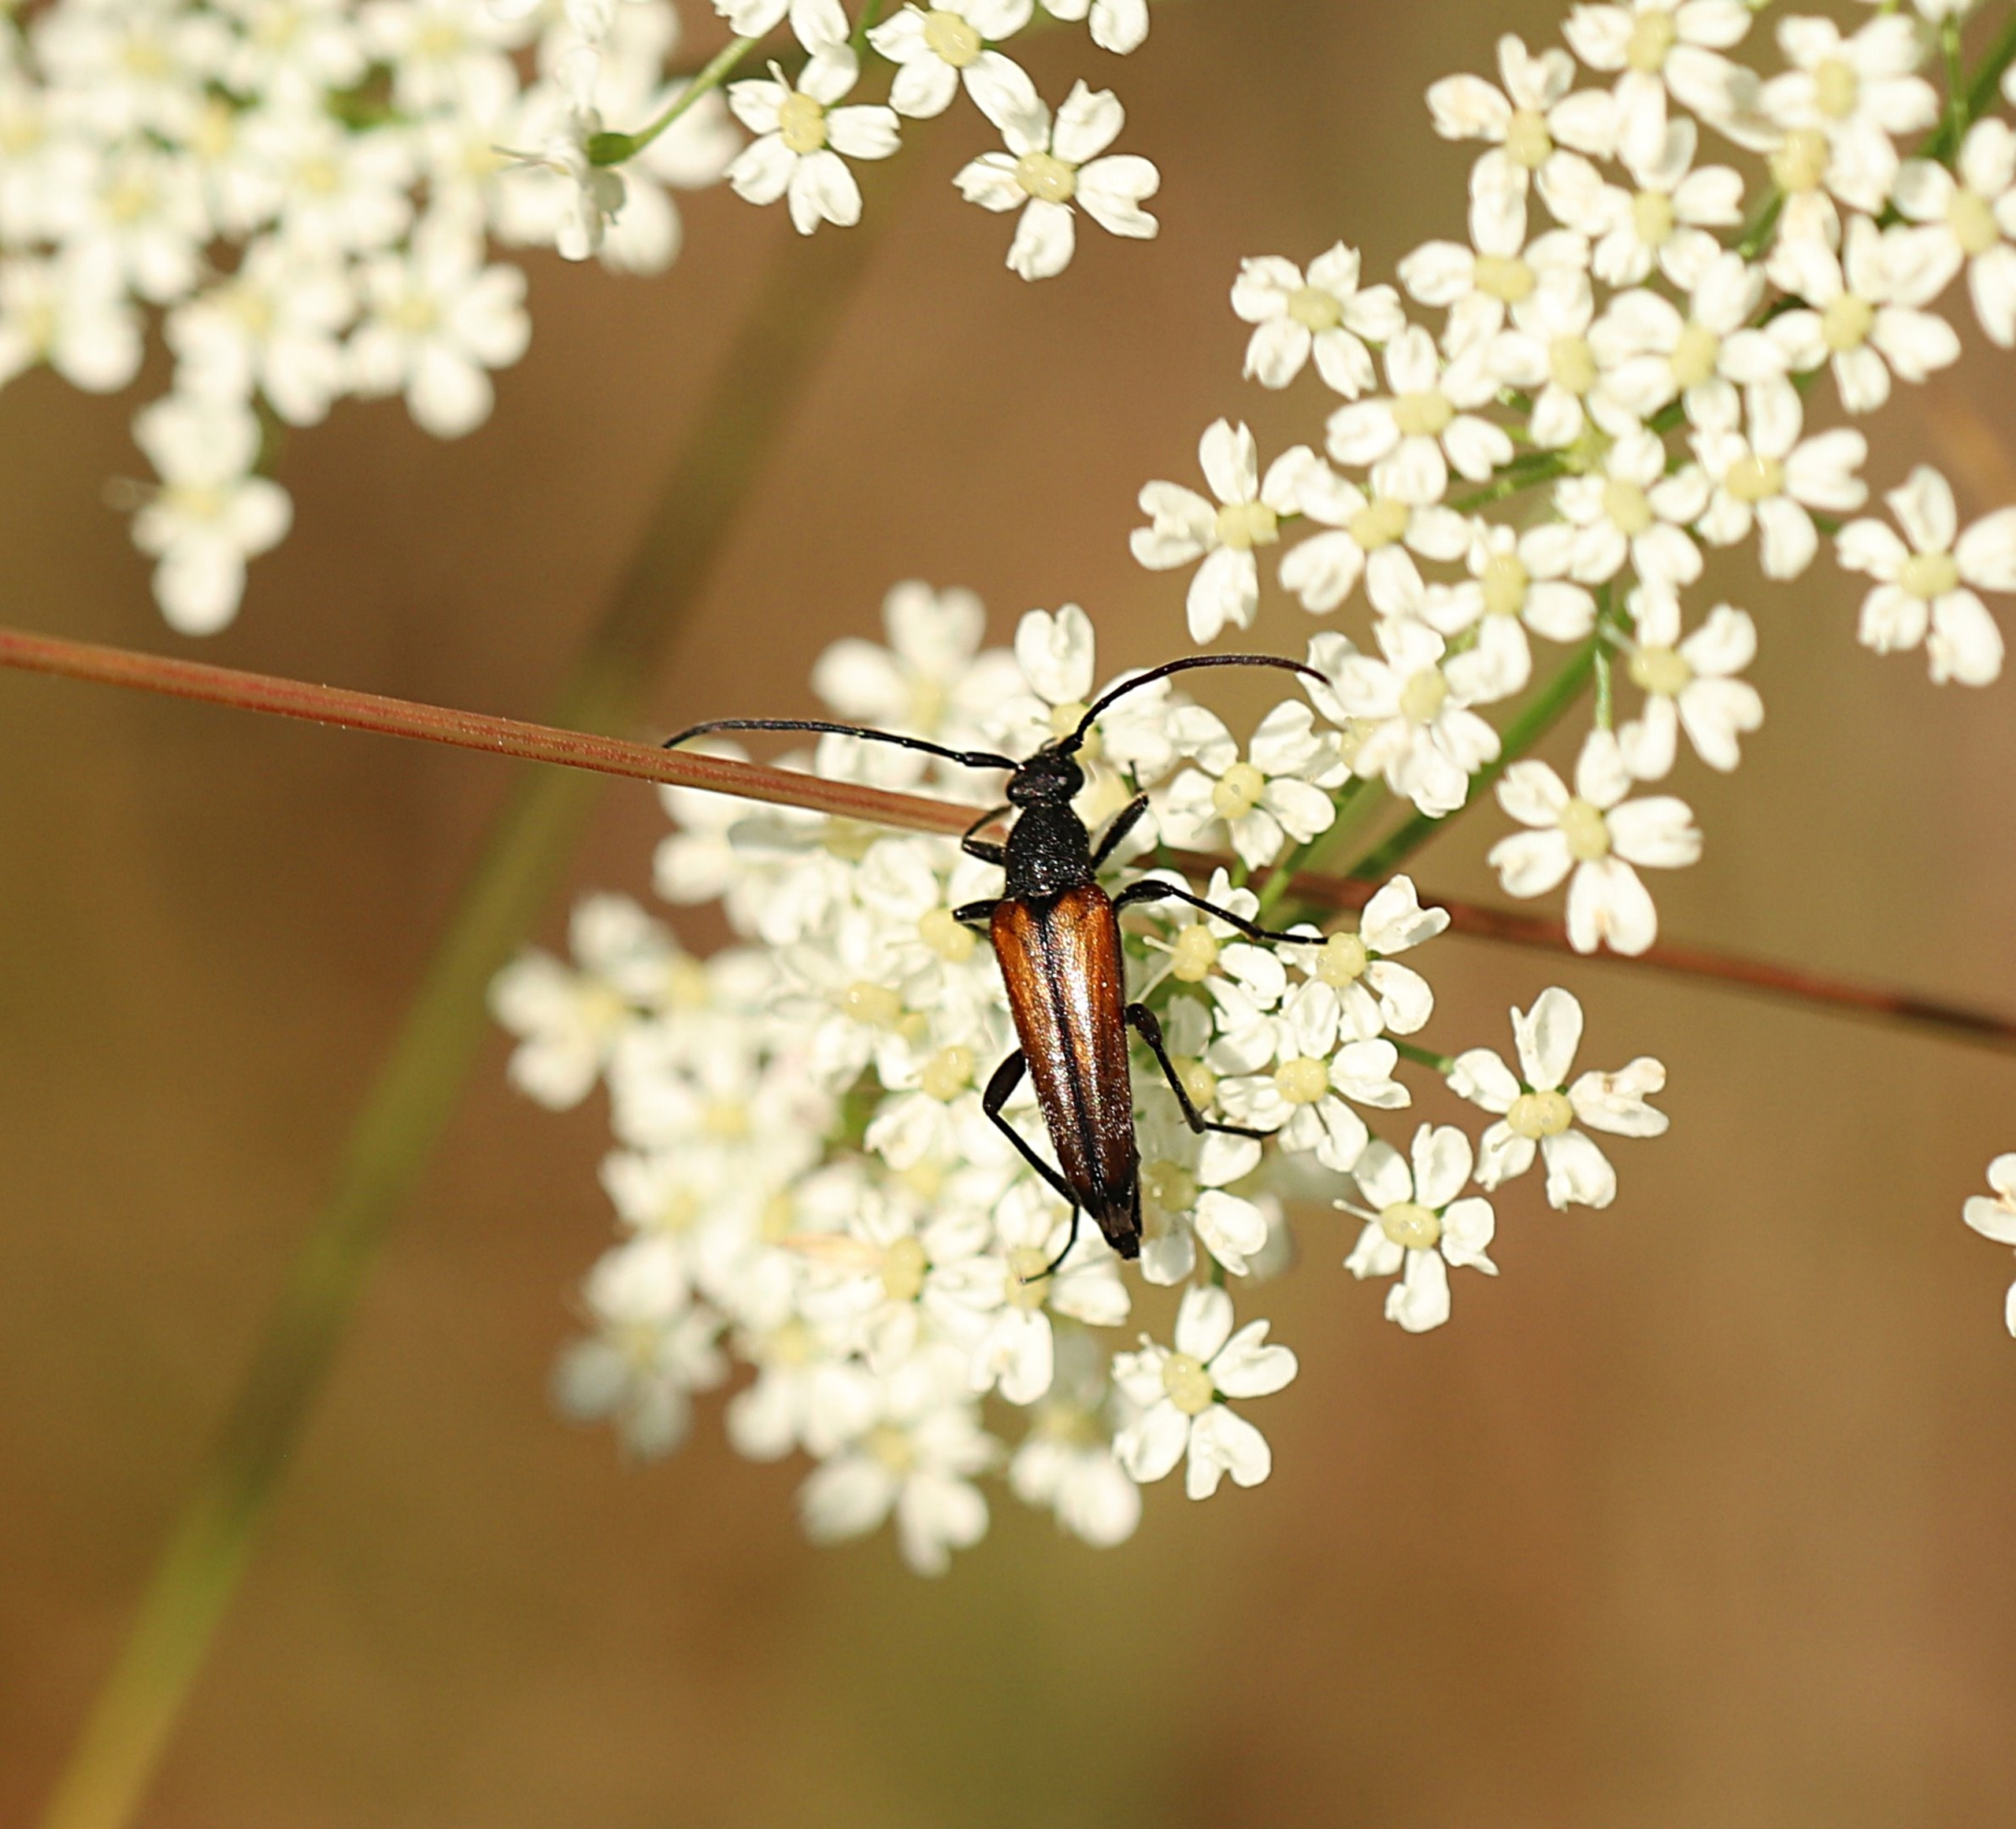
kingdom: Animalia
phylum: Arthropoda
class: Insecta
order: Coleoptera
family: Cerambycidae
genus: Stenurella
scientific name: Stenurella melanura
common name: Sortsømmet blomsterbuk
